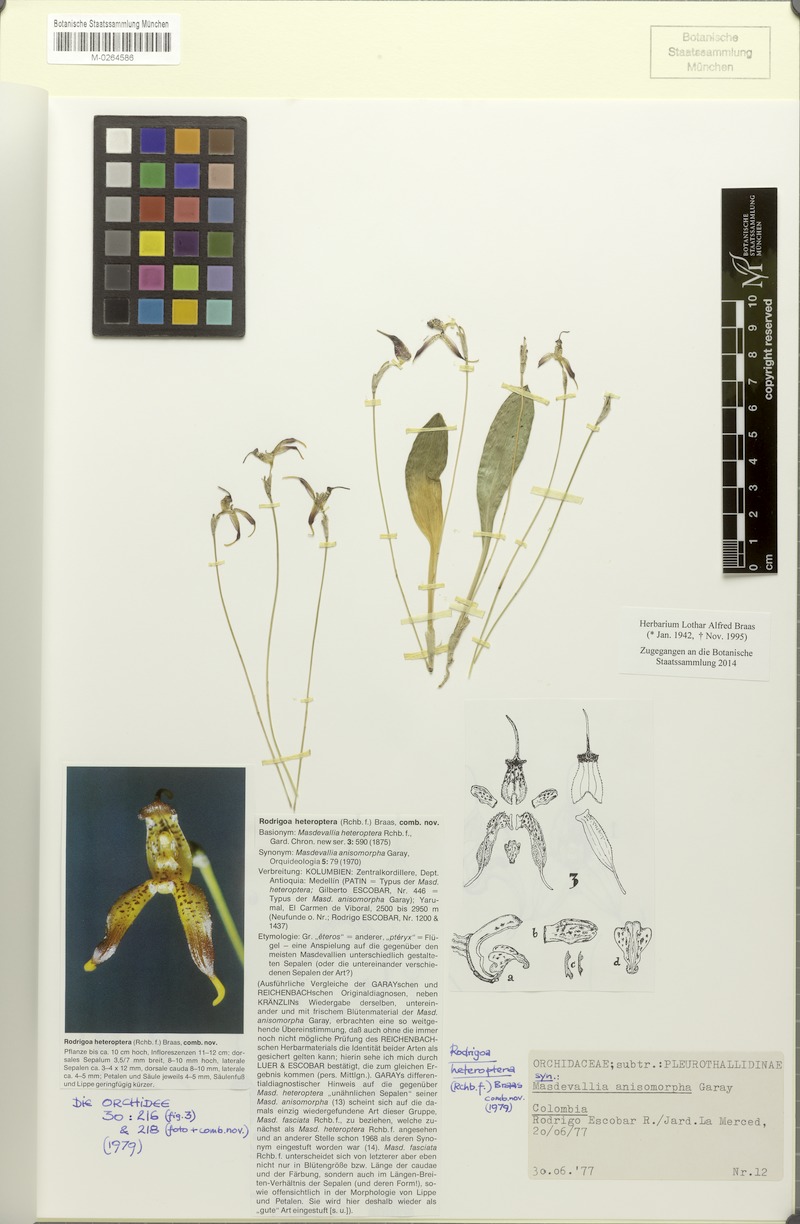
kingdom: Plantae
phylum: Tracheophyta
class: Liliopsida
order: Asparagales
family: Orchidaceae
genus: Masdevallia
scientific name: Masdevallia heteroptera
